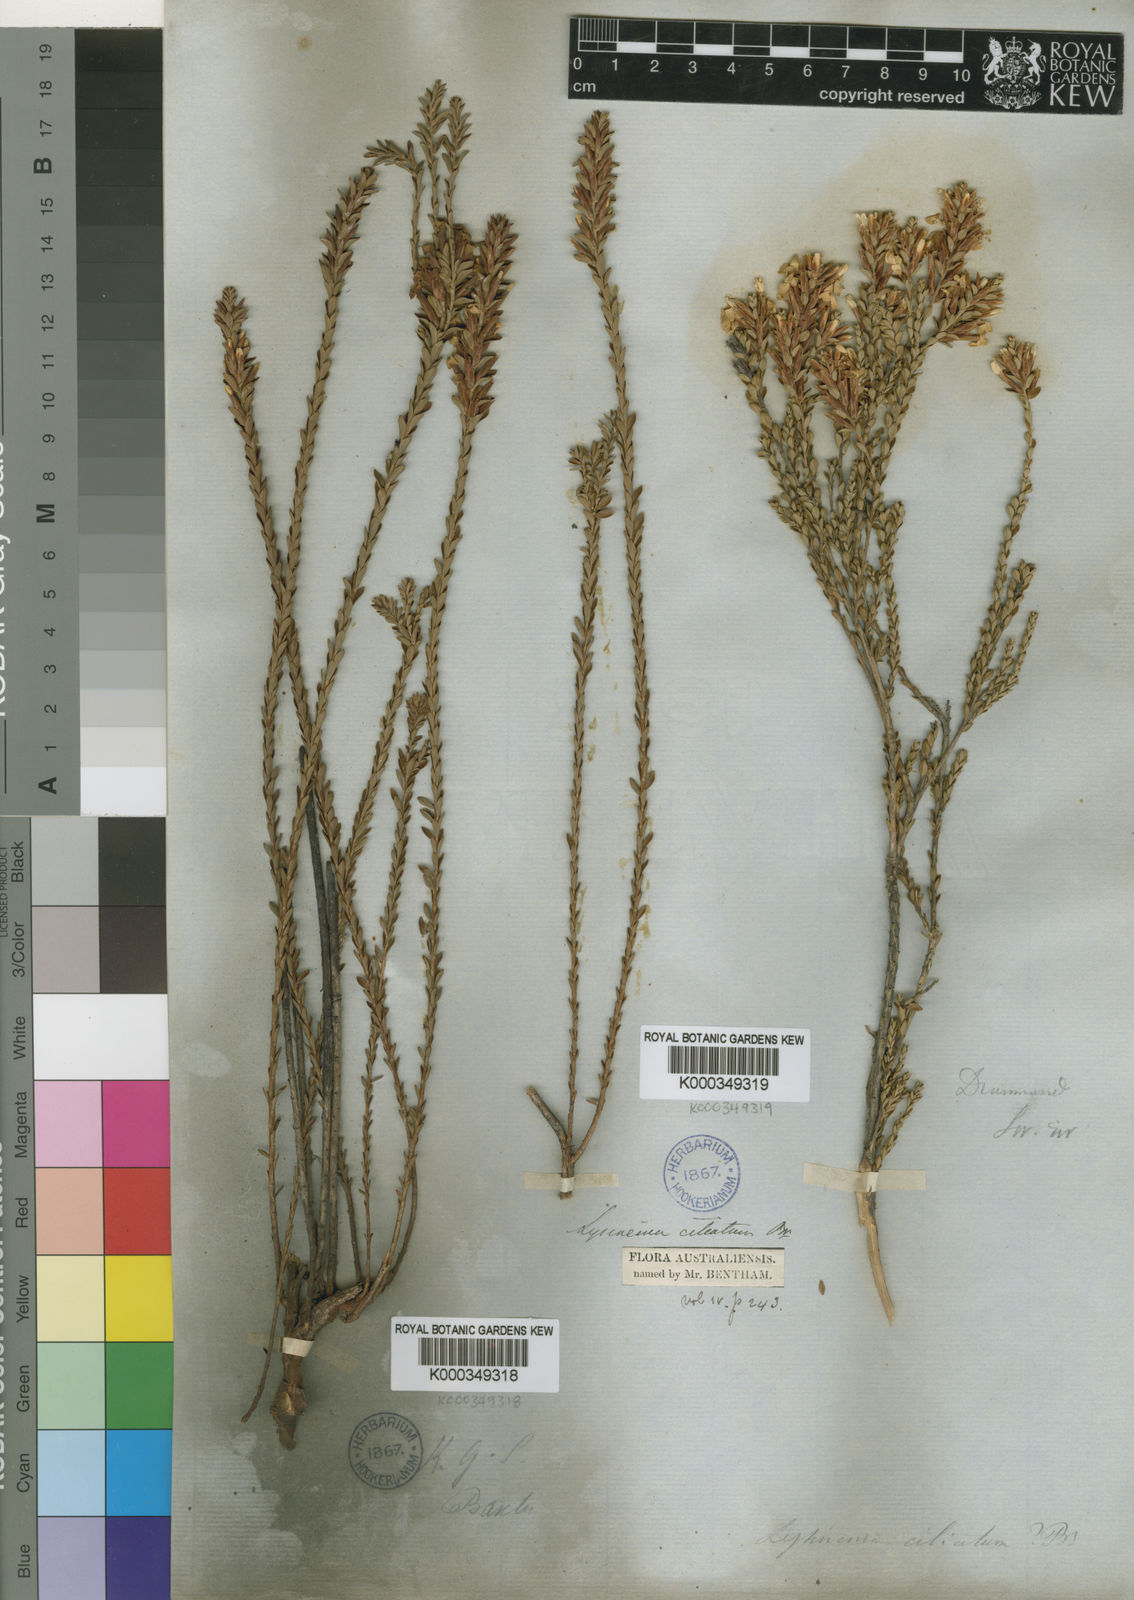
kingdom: Plantae
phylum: Tracheophyta
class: Magnoliopsida
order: Ericales
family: Ericaceae
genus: Lysinema
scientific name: Lysinema ciliatum
